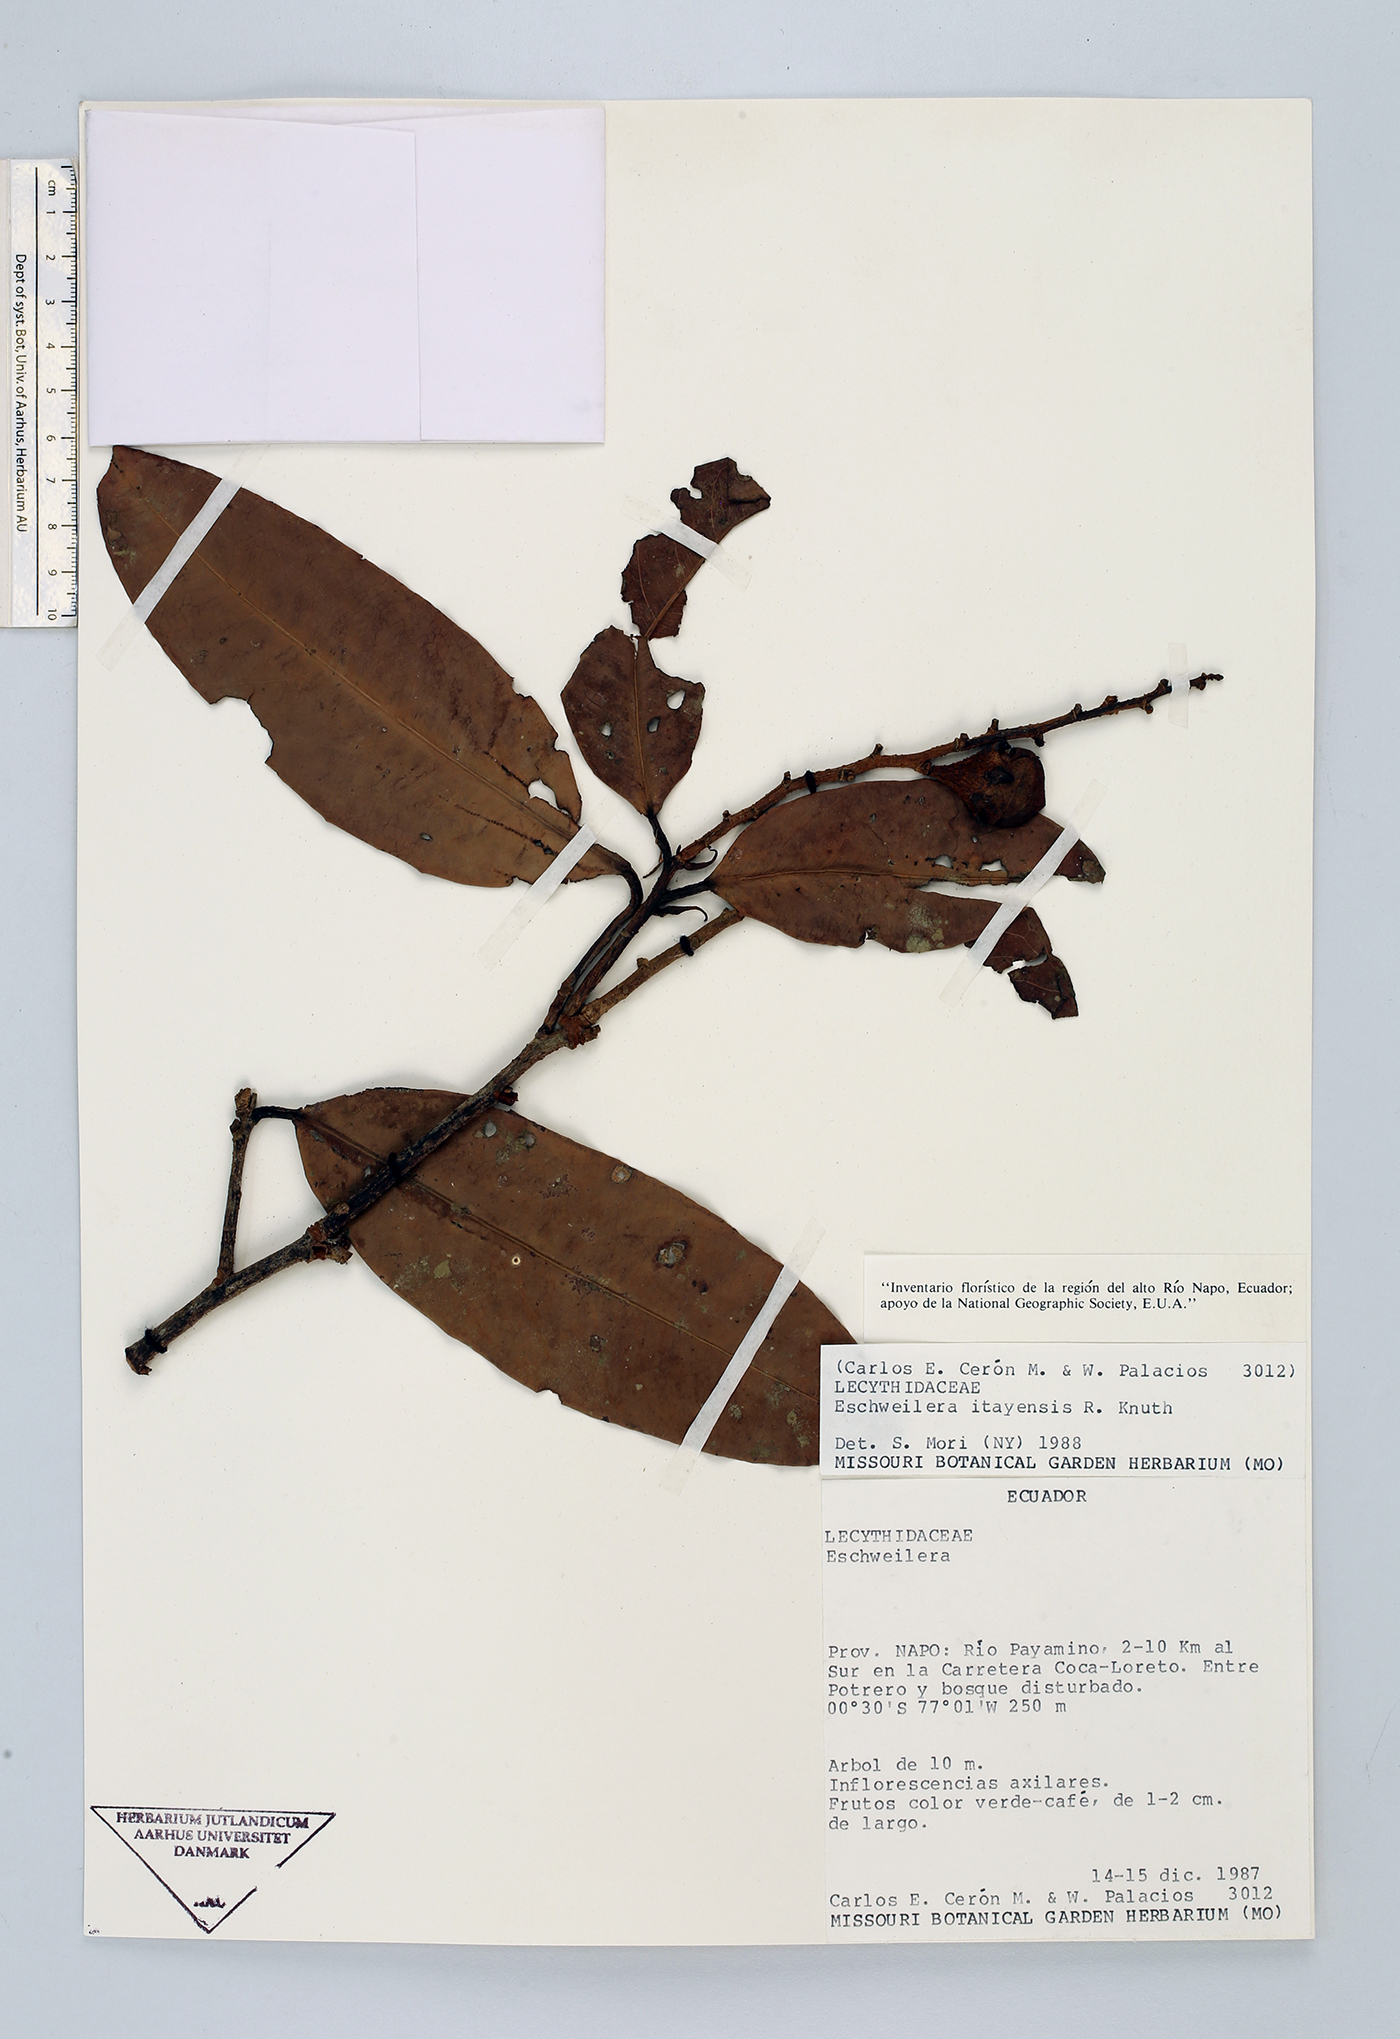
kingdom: Plantae
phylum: Tracheophyta
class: Magnoliopsida
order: Ericales
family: Lecythidaceae
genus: Eschweilera
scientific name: Eschweilera itayensis
